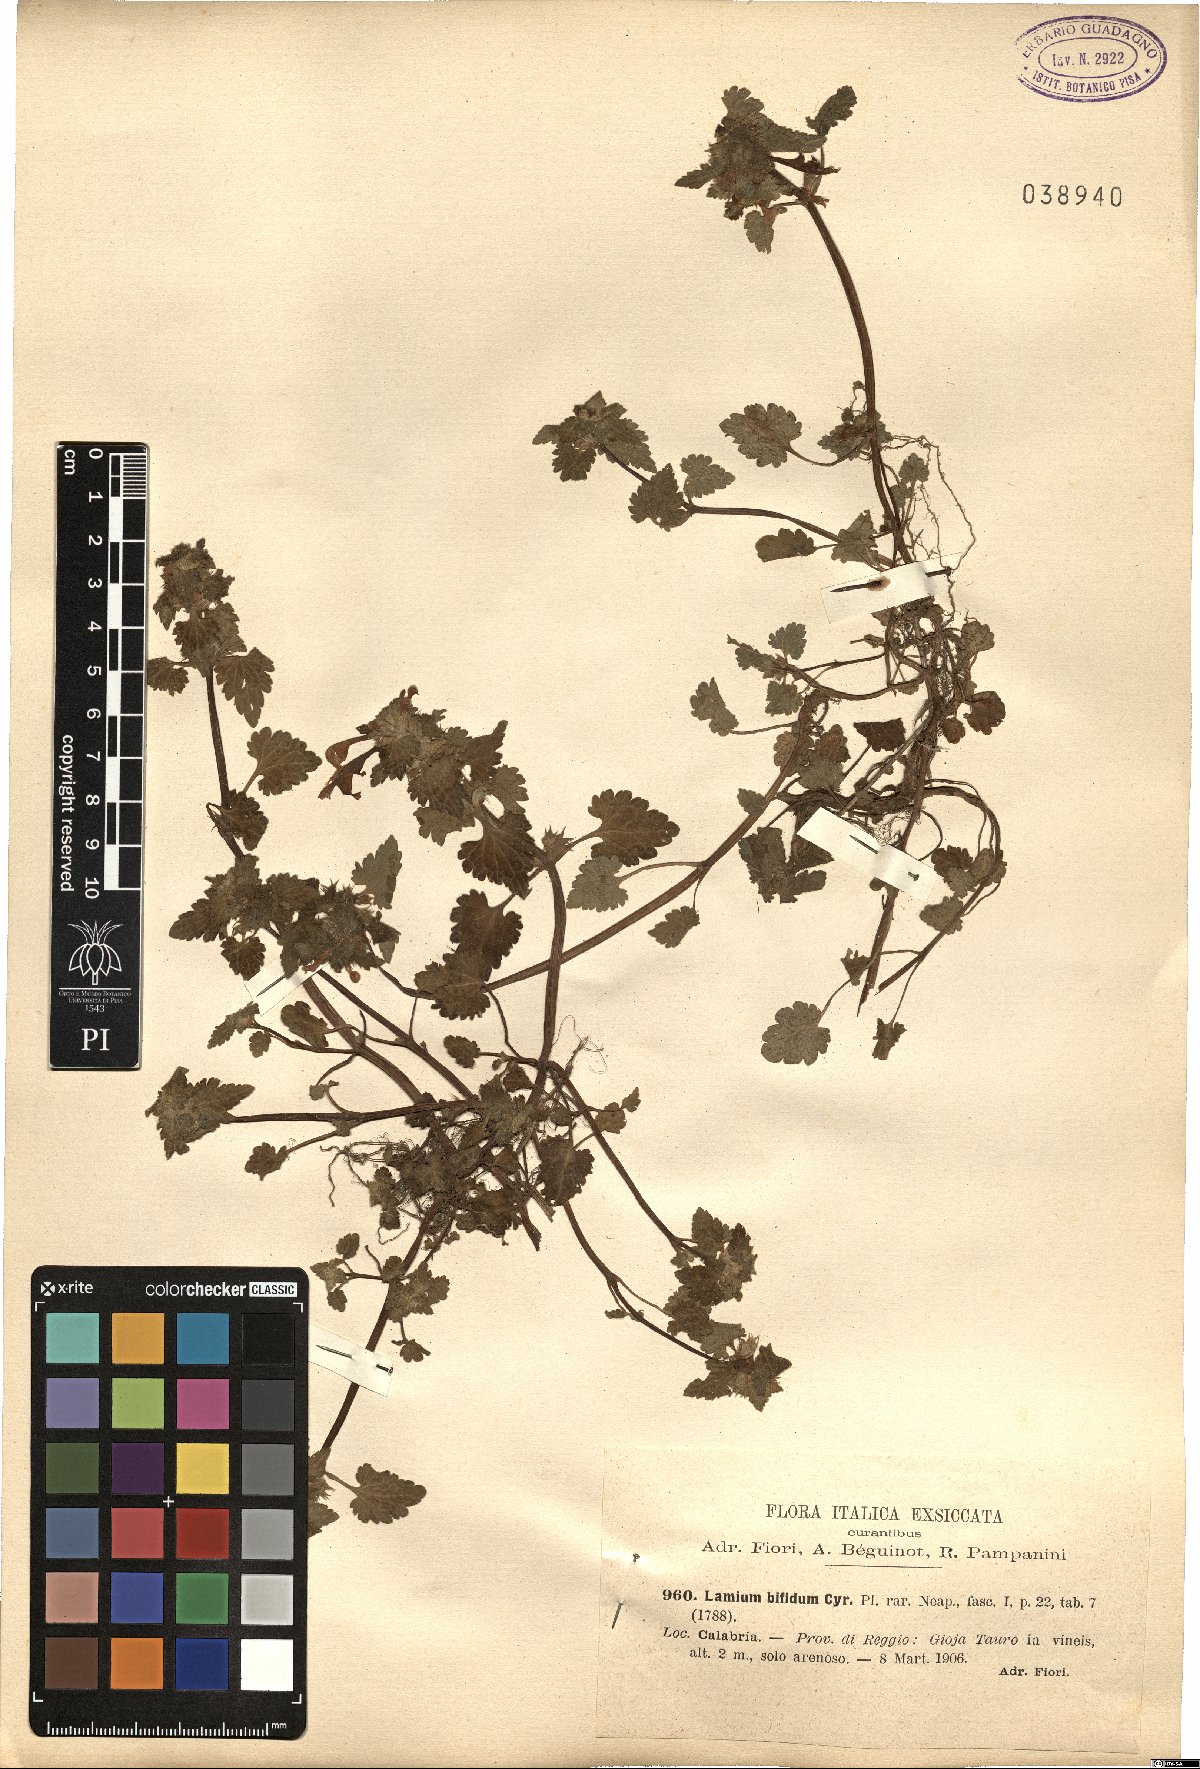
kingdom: Plantae
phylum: Tracheophyta
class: Magnoliopsida
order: Lamiales
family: Lamiaceae
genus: Lamium
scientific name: Lamium bifidum
